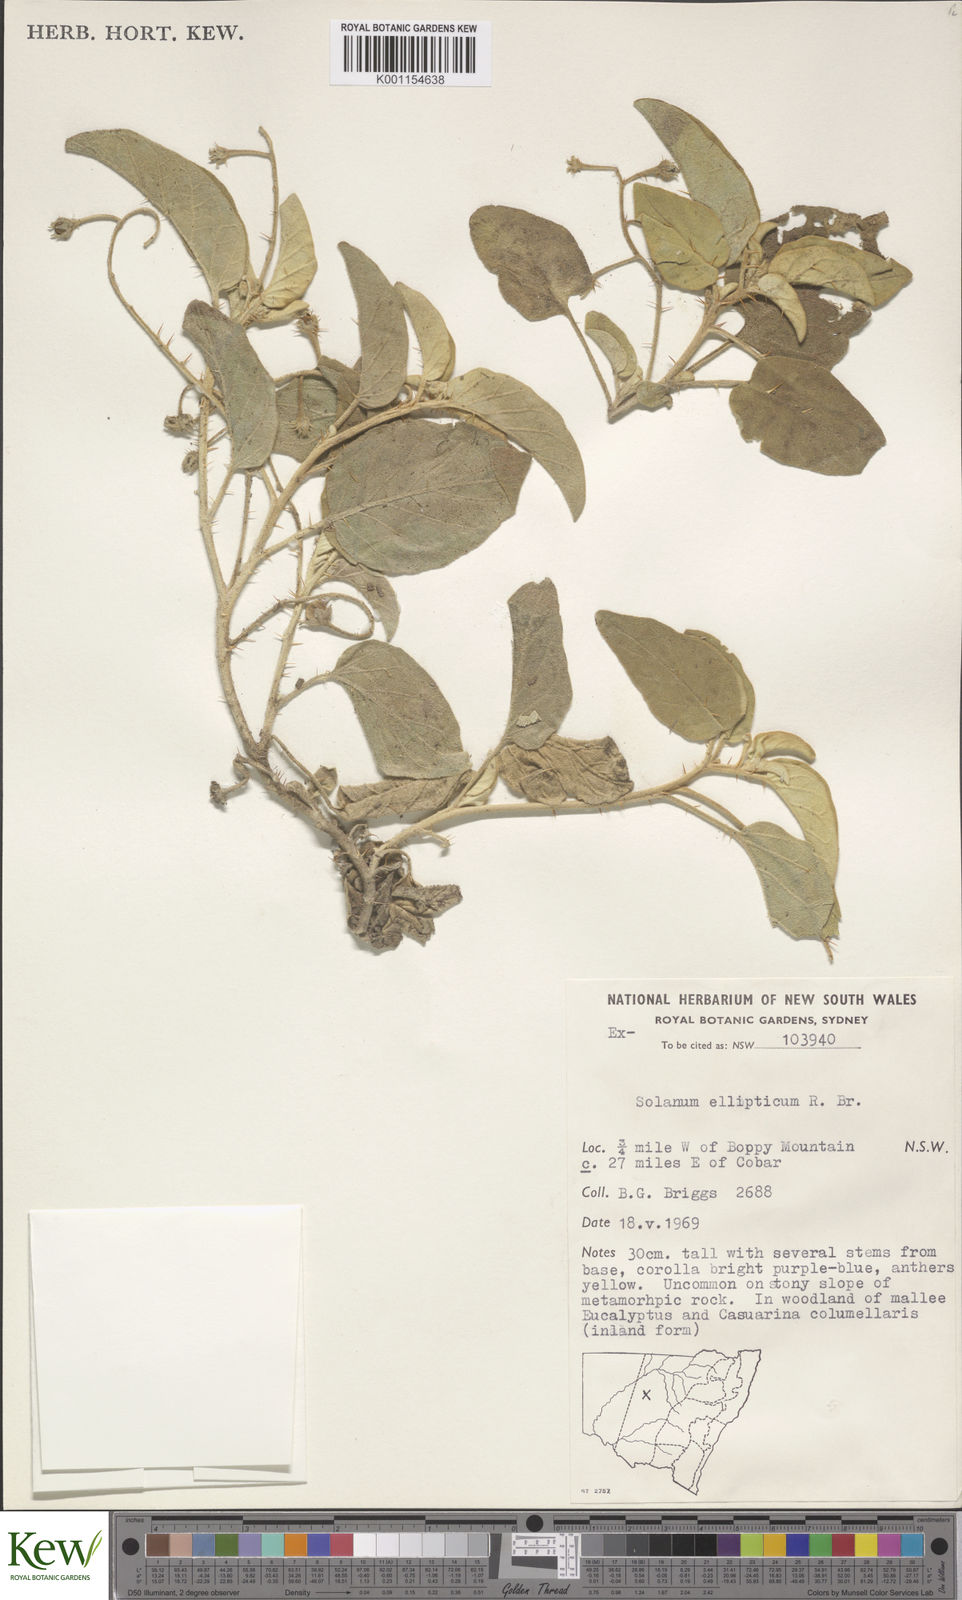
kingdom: Plantae
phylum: Tracheophyta
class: Magnoliopsida
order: Solanales
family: Solanaceae
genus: Solanum
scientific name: Solanum ellipticum
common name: Potato-bush
